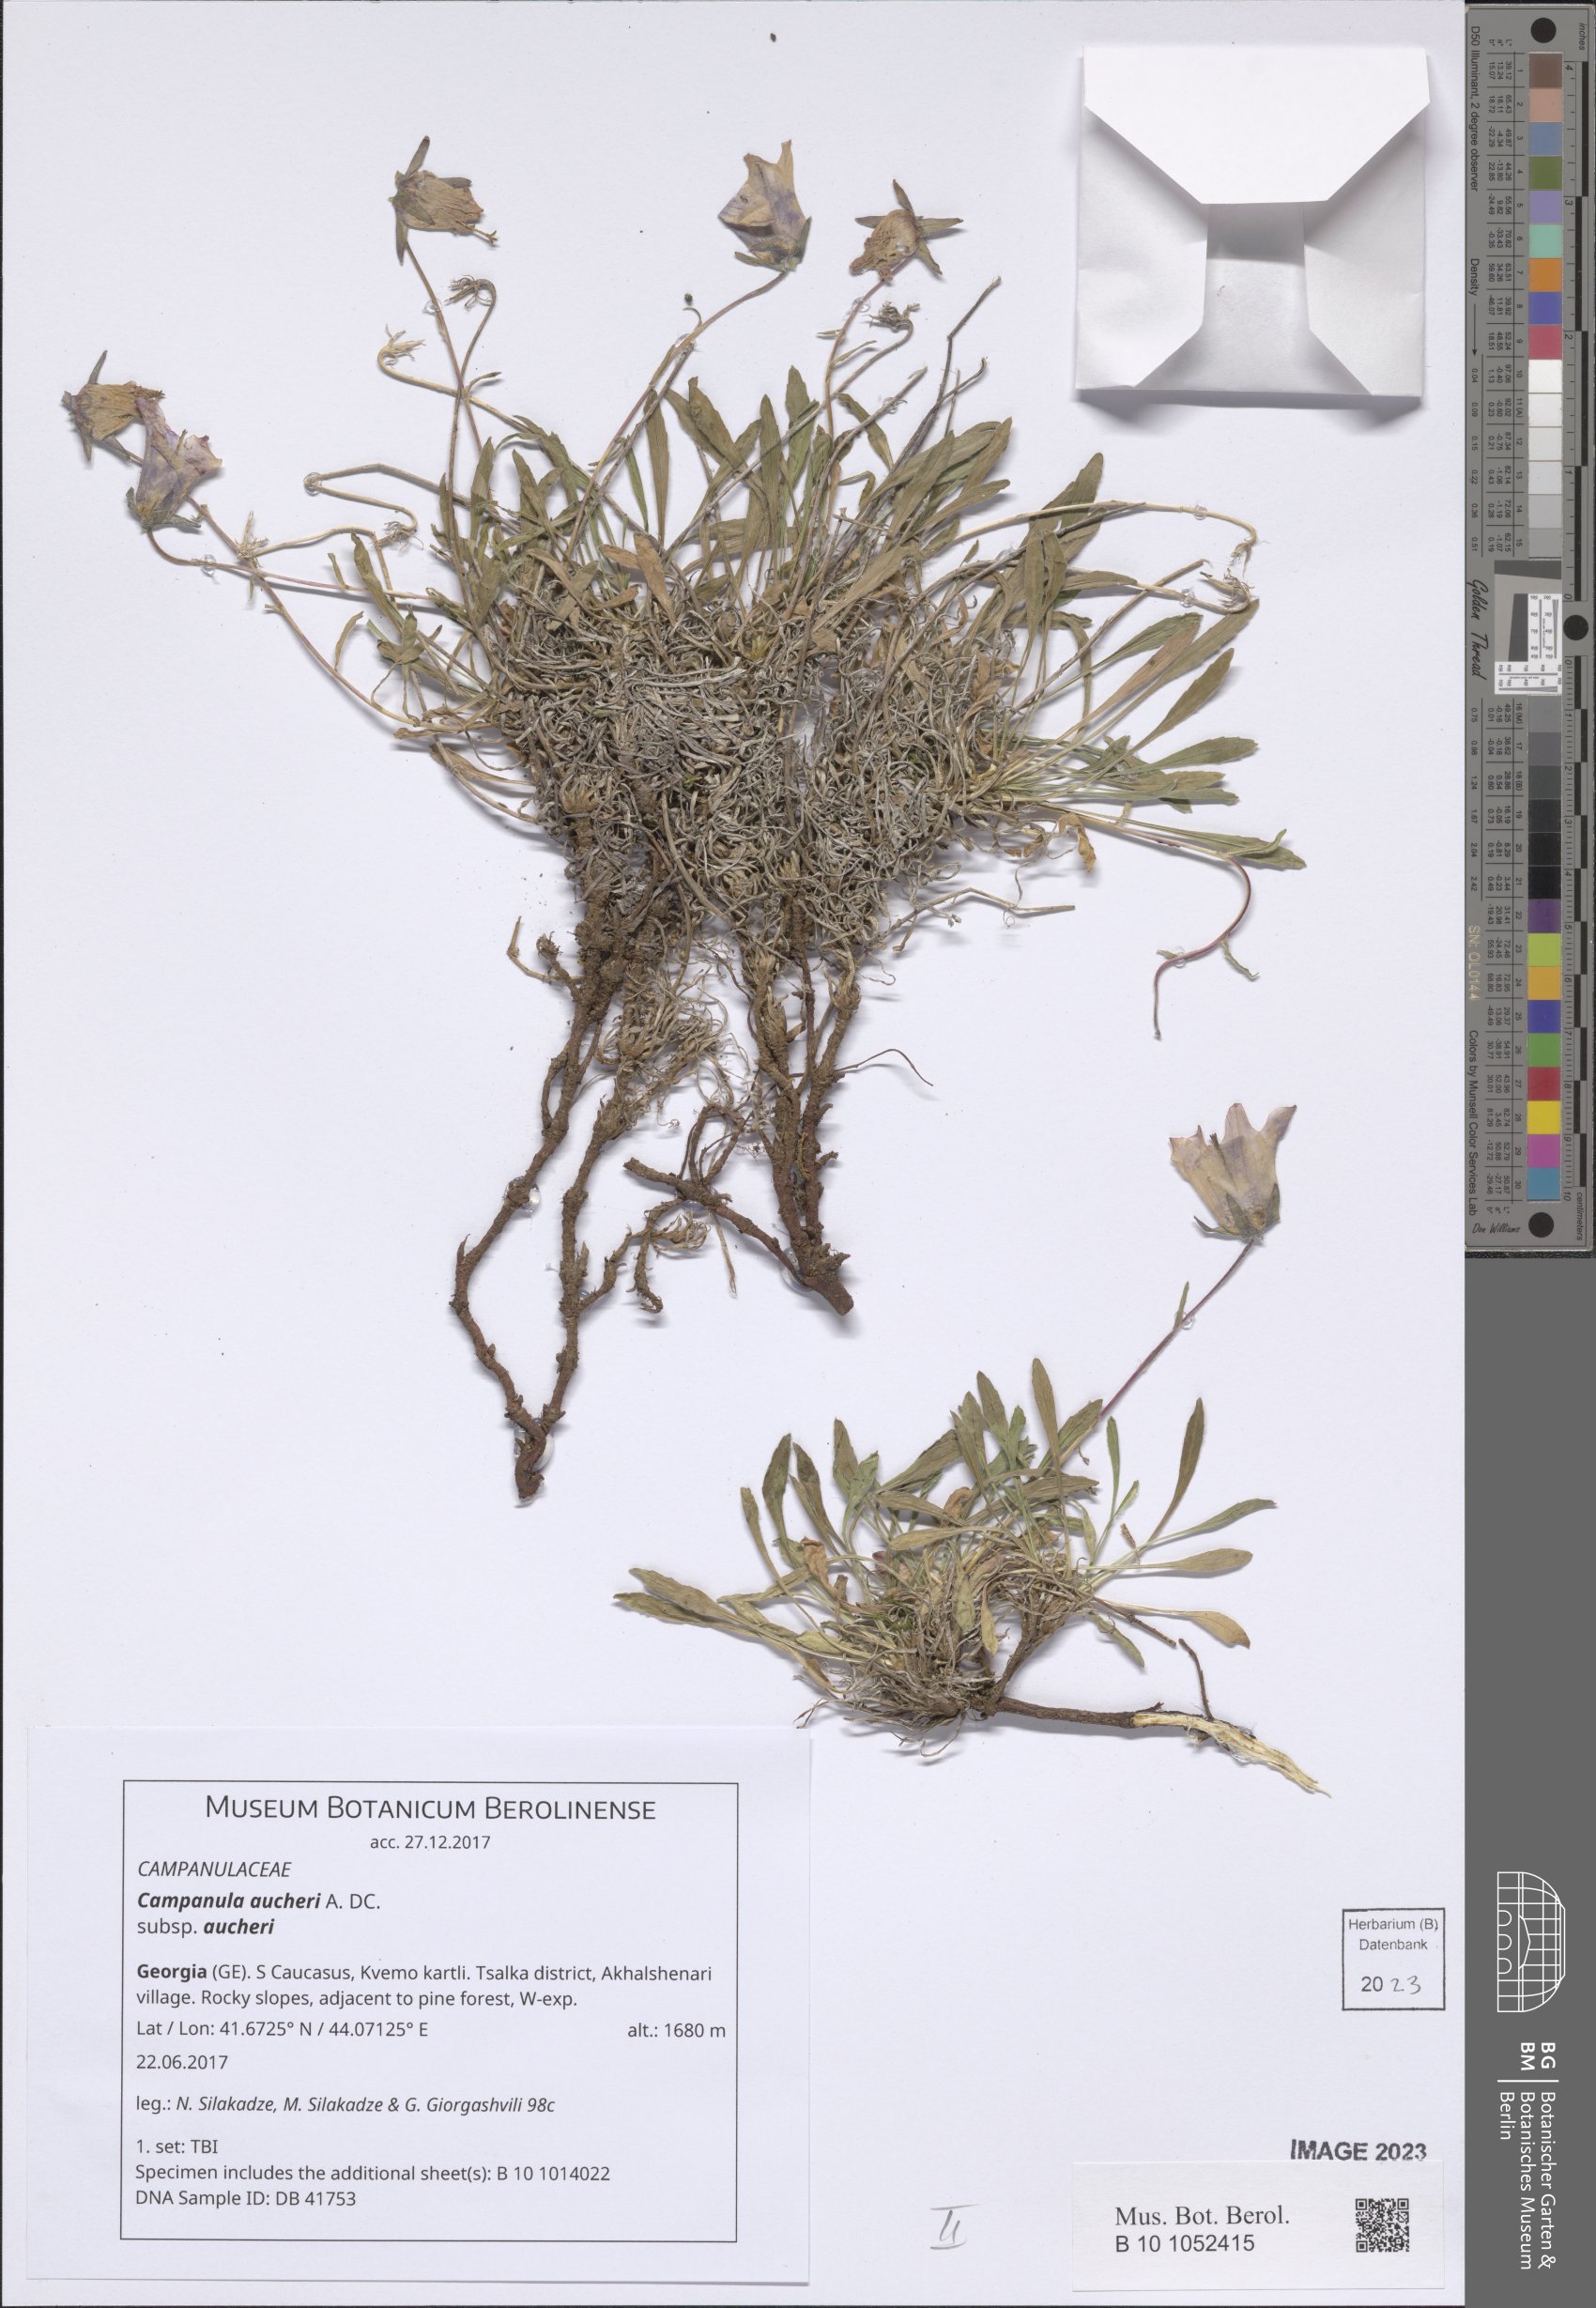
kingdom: Plantae
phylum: Tracheophyta
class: Magnoliopsida
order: Asterales
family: Campanulaceae
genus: Campanula
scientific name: Campanula saxifraga
